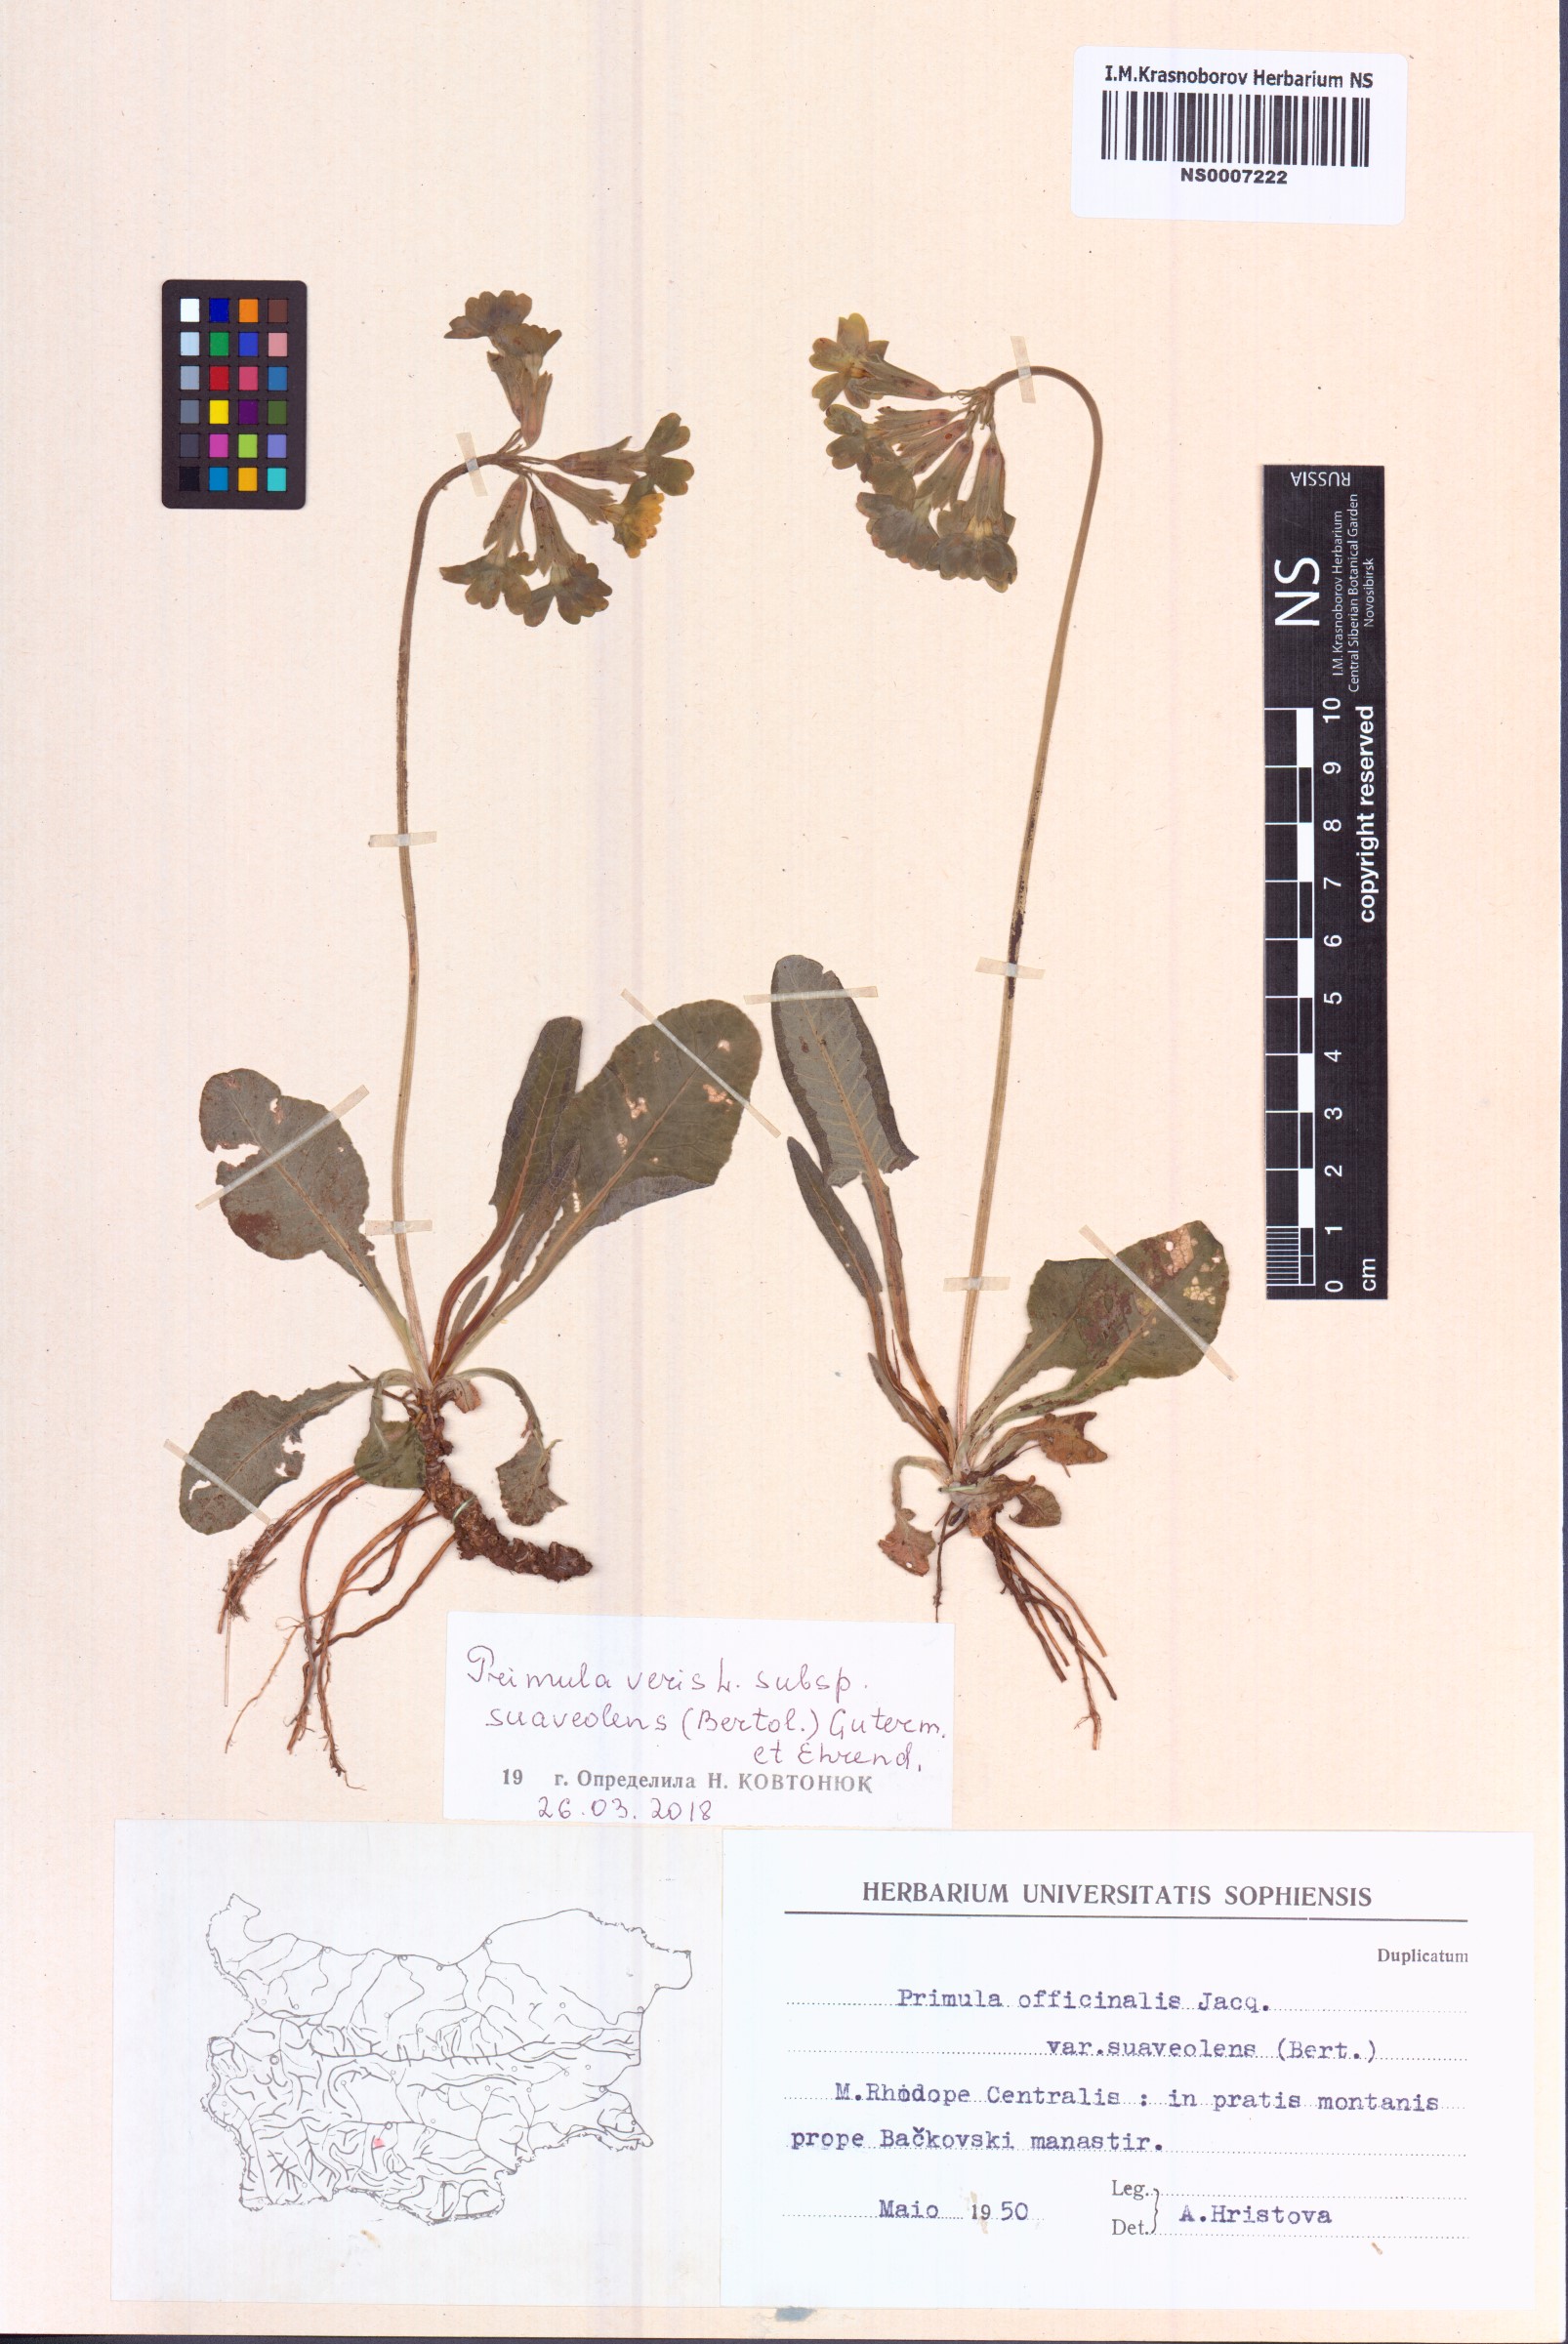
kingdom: Plantae
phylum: Tracheophyta
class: Magnoliopsida
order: Ericales
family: Primulaceae
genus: Primula
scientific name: Primula veris
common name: Cowslip
